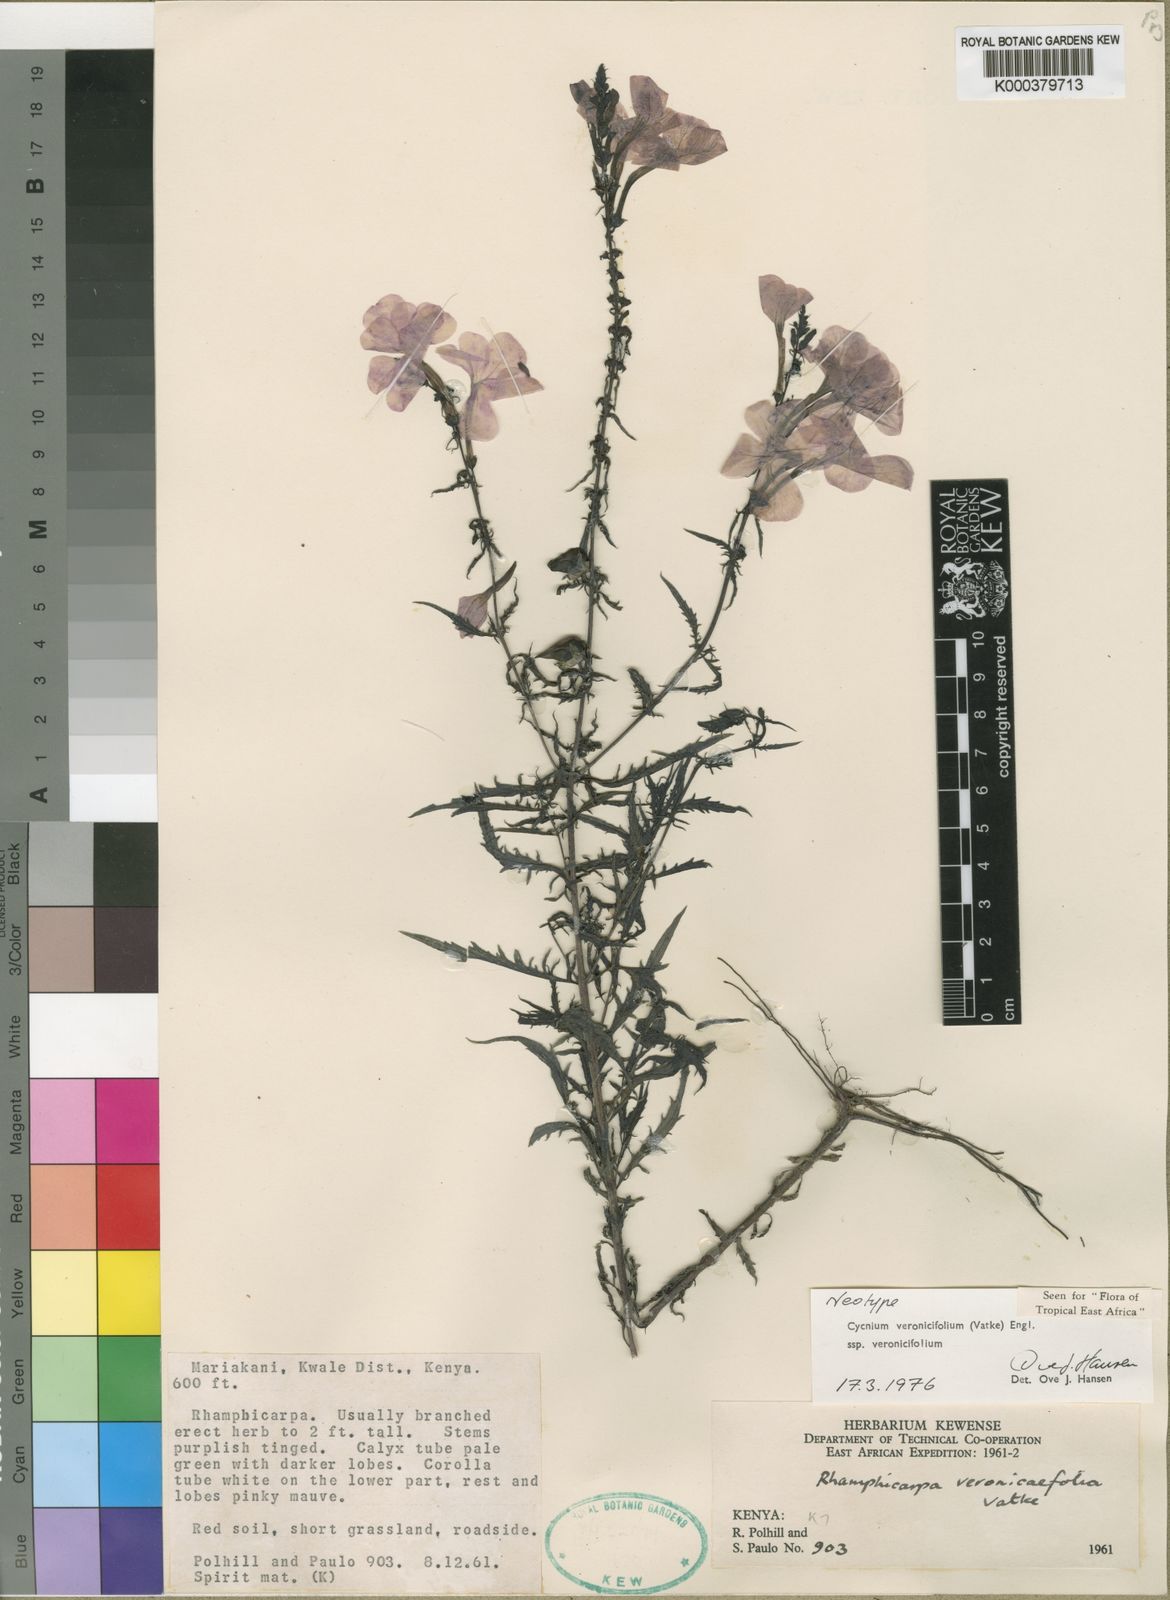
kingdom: Plantae
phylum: Tracheophyta
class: Magnoliopsida
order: Lamiales
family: Orobanchaceae
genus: Cycnium
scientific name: Cycnium veronicifolium
